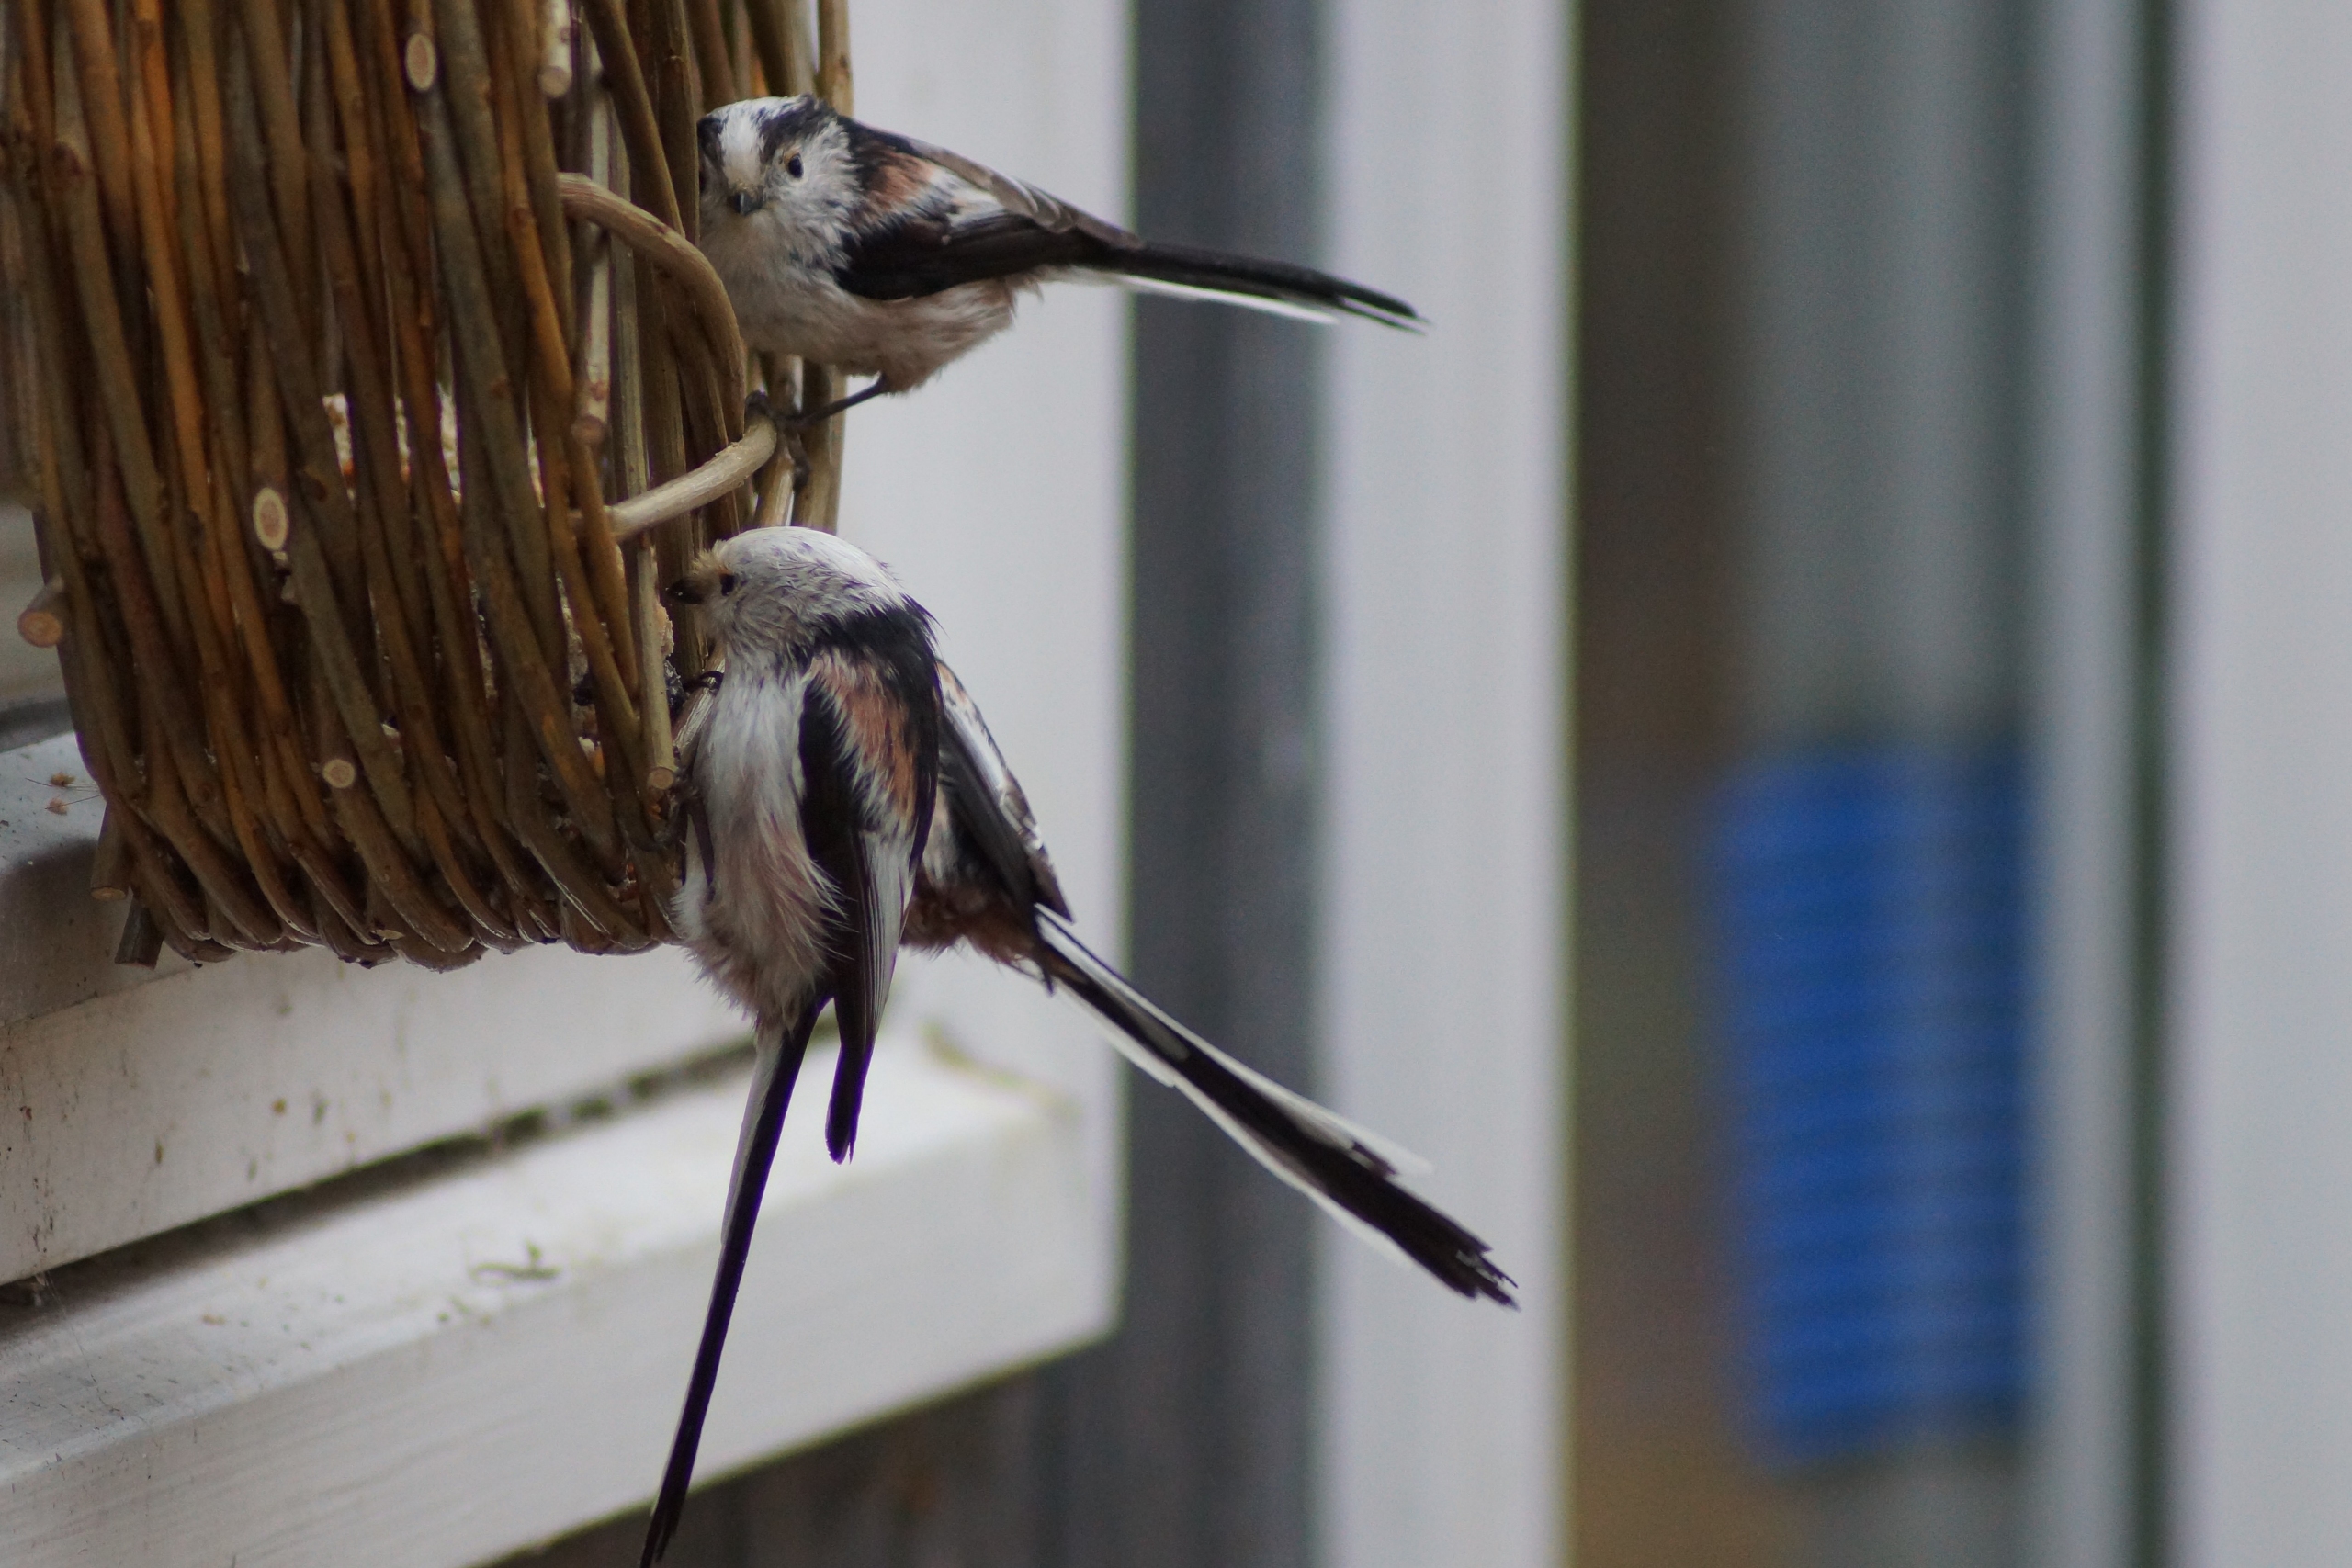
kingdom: Animalia
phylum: Chordata
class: Aves
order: Passeriformes
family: Aegithalidae
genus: Aegithalos
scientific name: Aegithalos caudatus
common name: Halemejse
